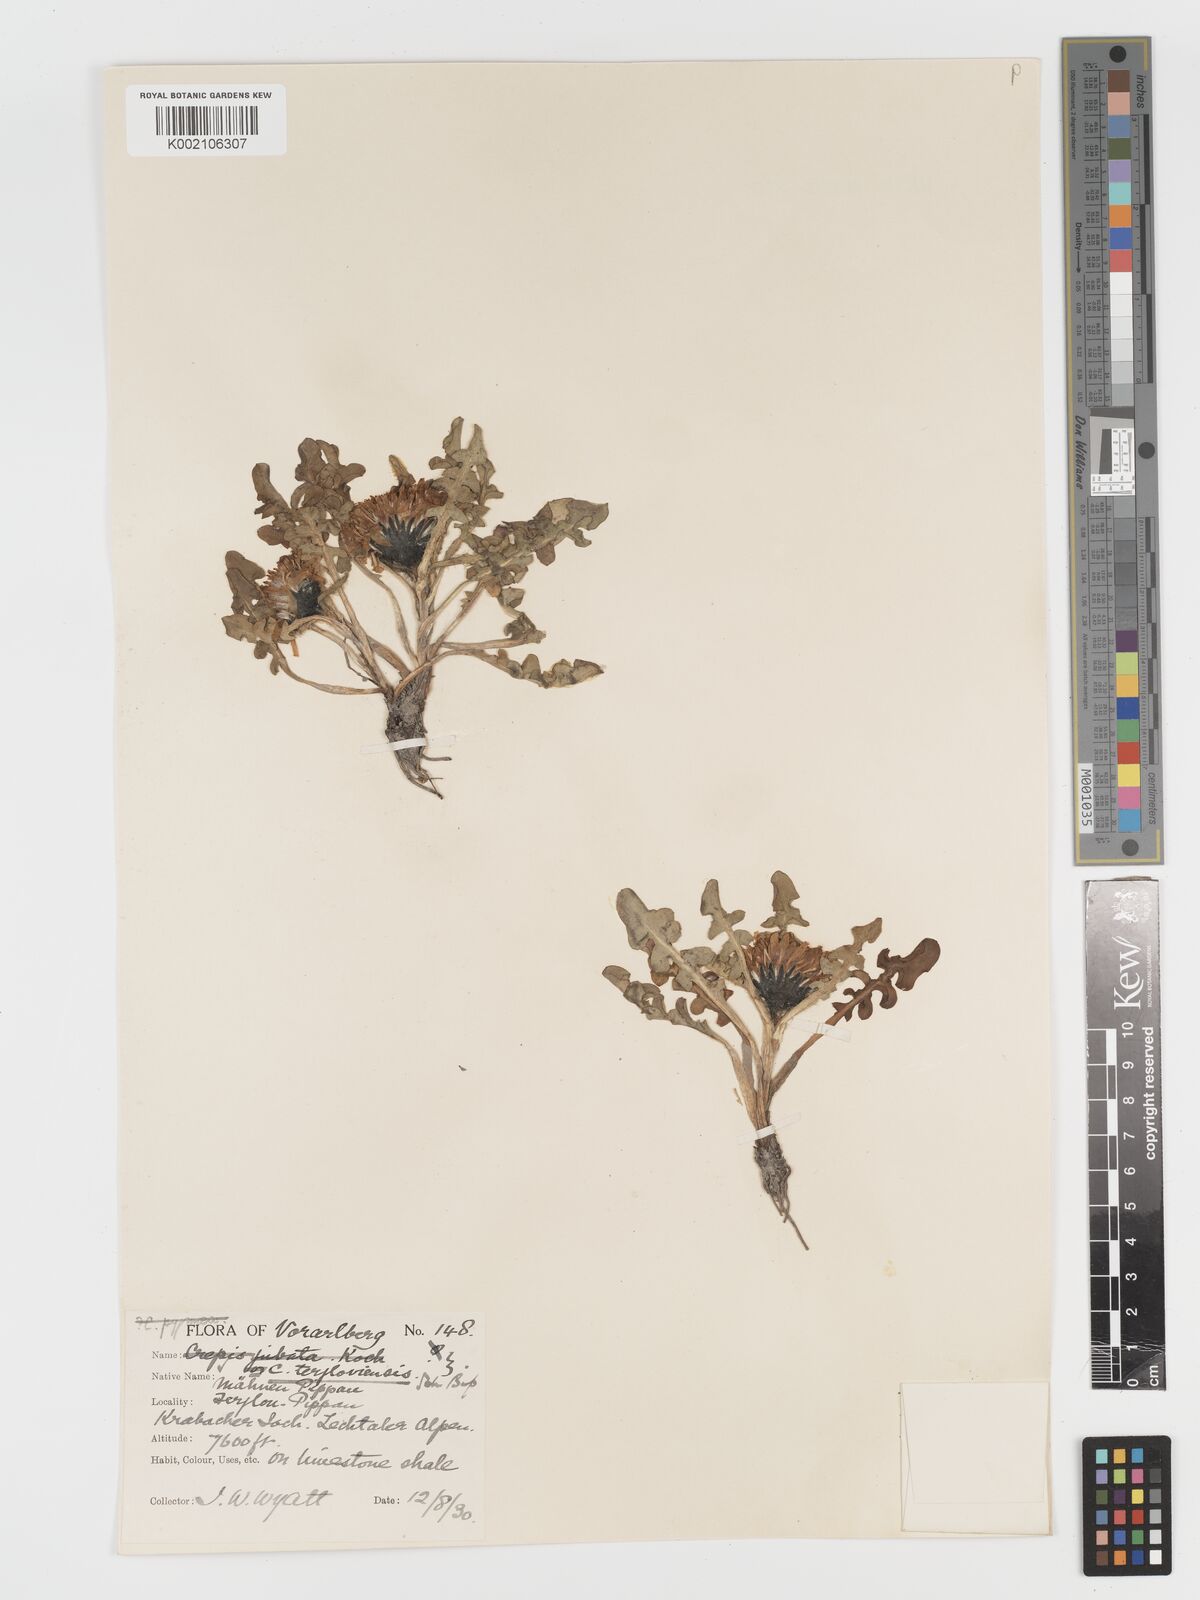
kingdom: Plantae
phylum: Tracheophyta
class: Magnoliopsida
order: Asterales
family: Asteraceae
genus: Crepis
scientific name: Crepis terglouensis
